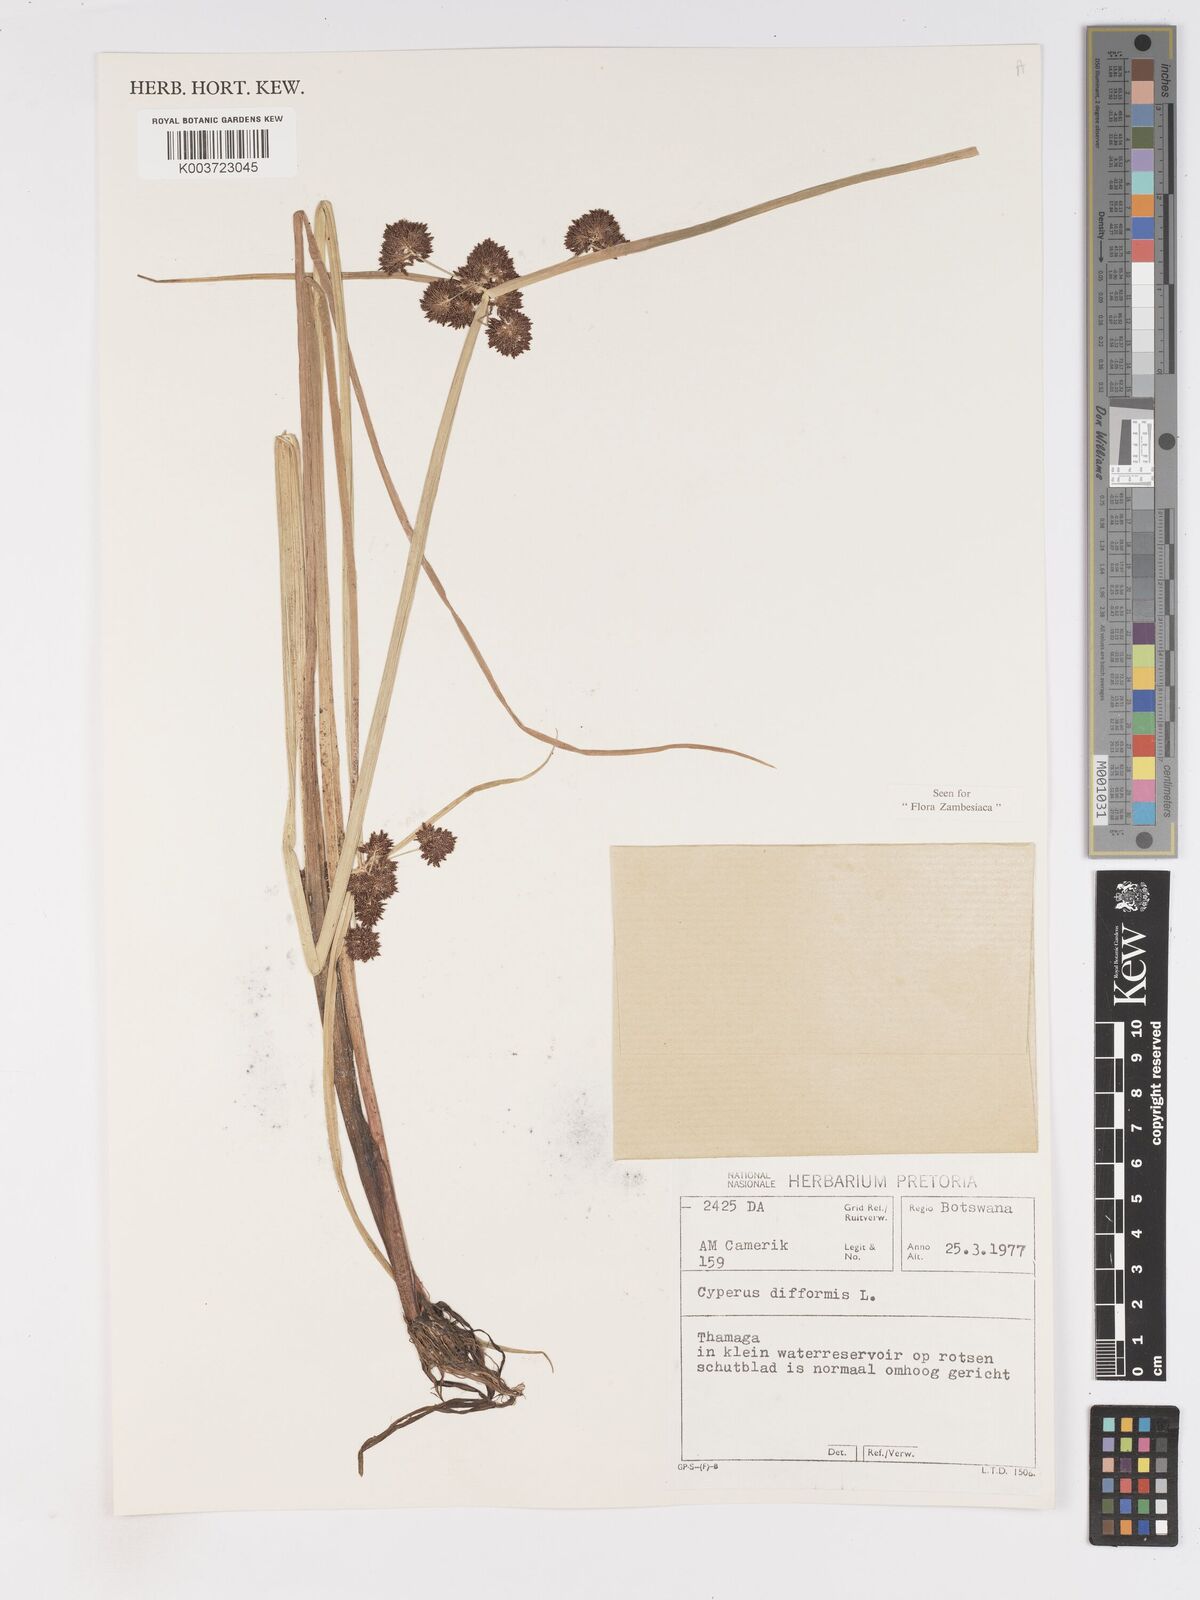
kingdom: Plantae
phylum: Tracheophyta
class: Liliopsida
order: Poales
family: Cyperaceae
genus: Cyperus
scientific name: Cyperus difformis
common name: Variable flatsedge
